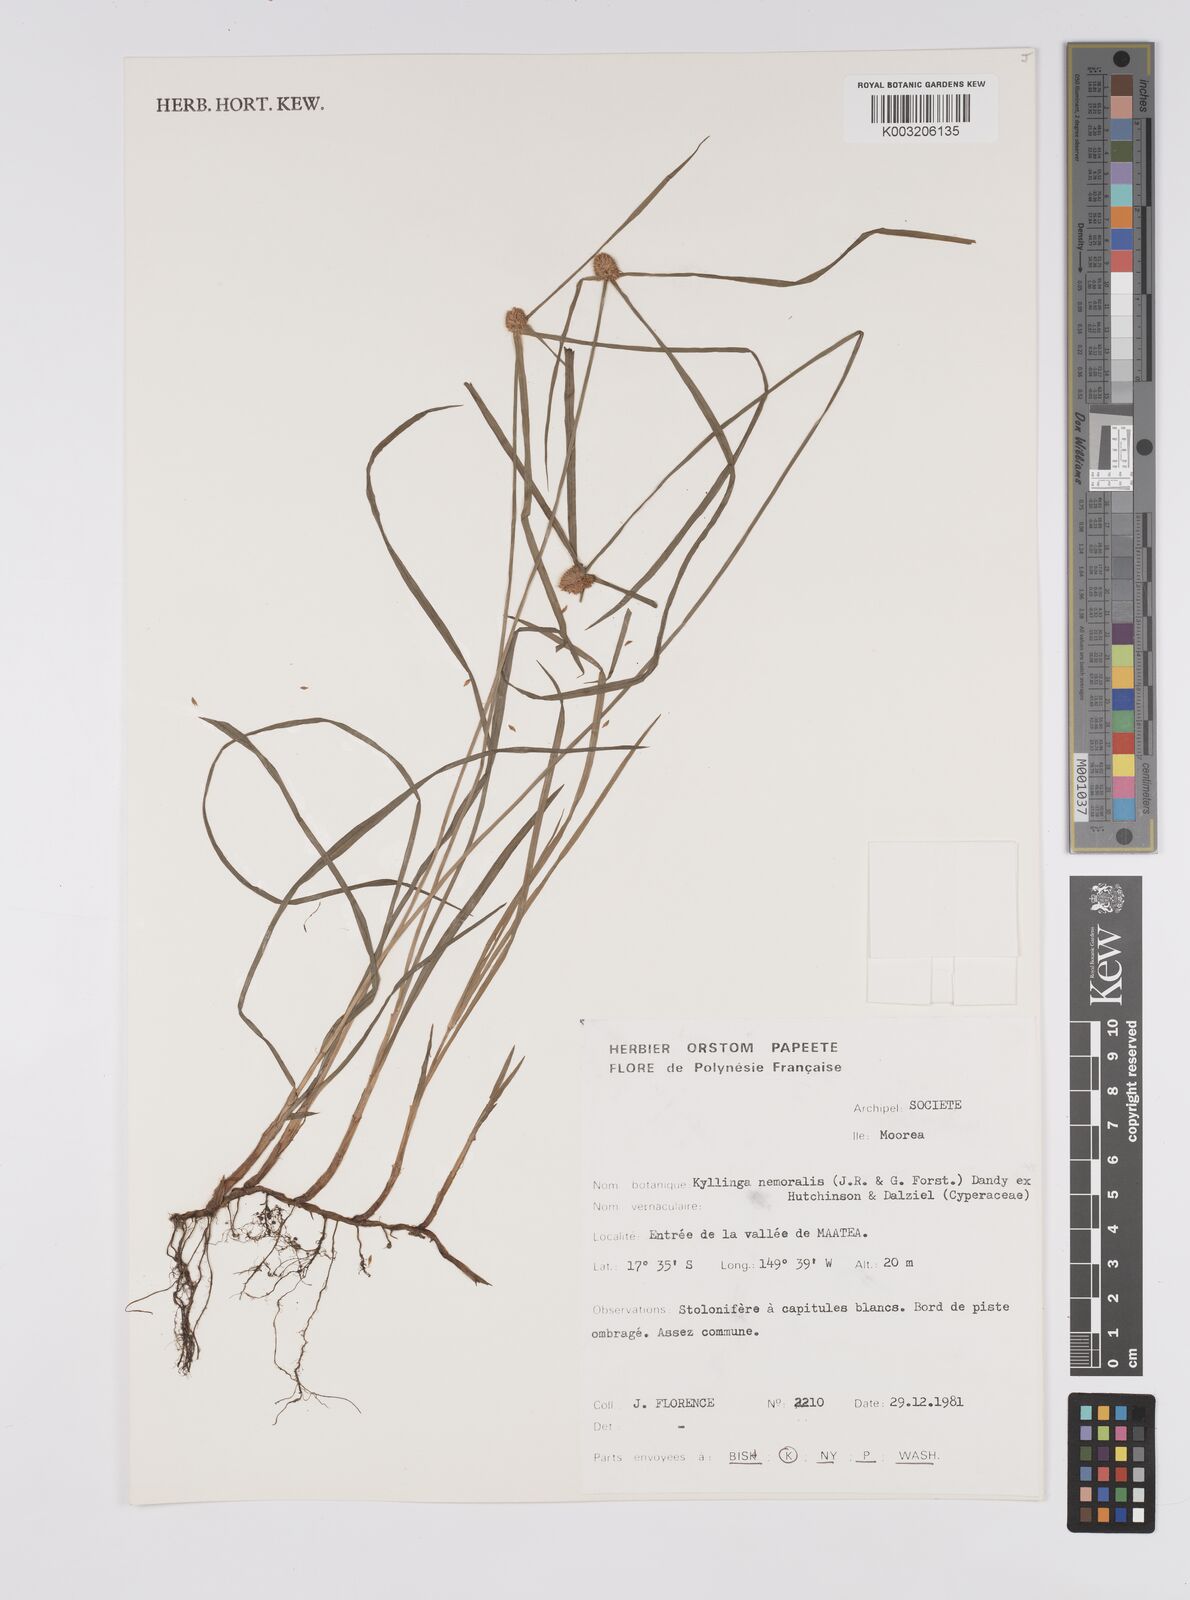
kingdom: Plantae
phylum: Tracheophyta
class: Liliopsida
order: Poales
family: Cyperaceae
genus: Cyperus
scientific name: Cyperus nemoralis
